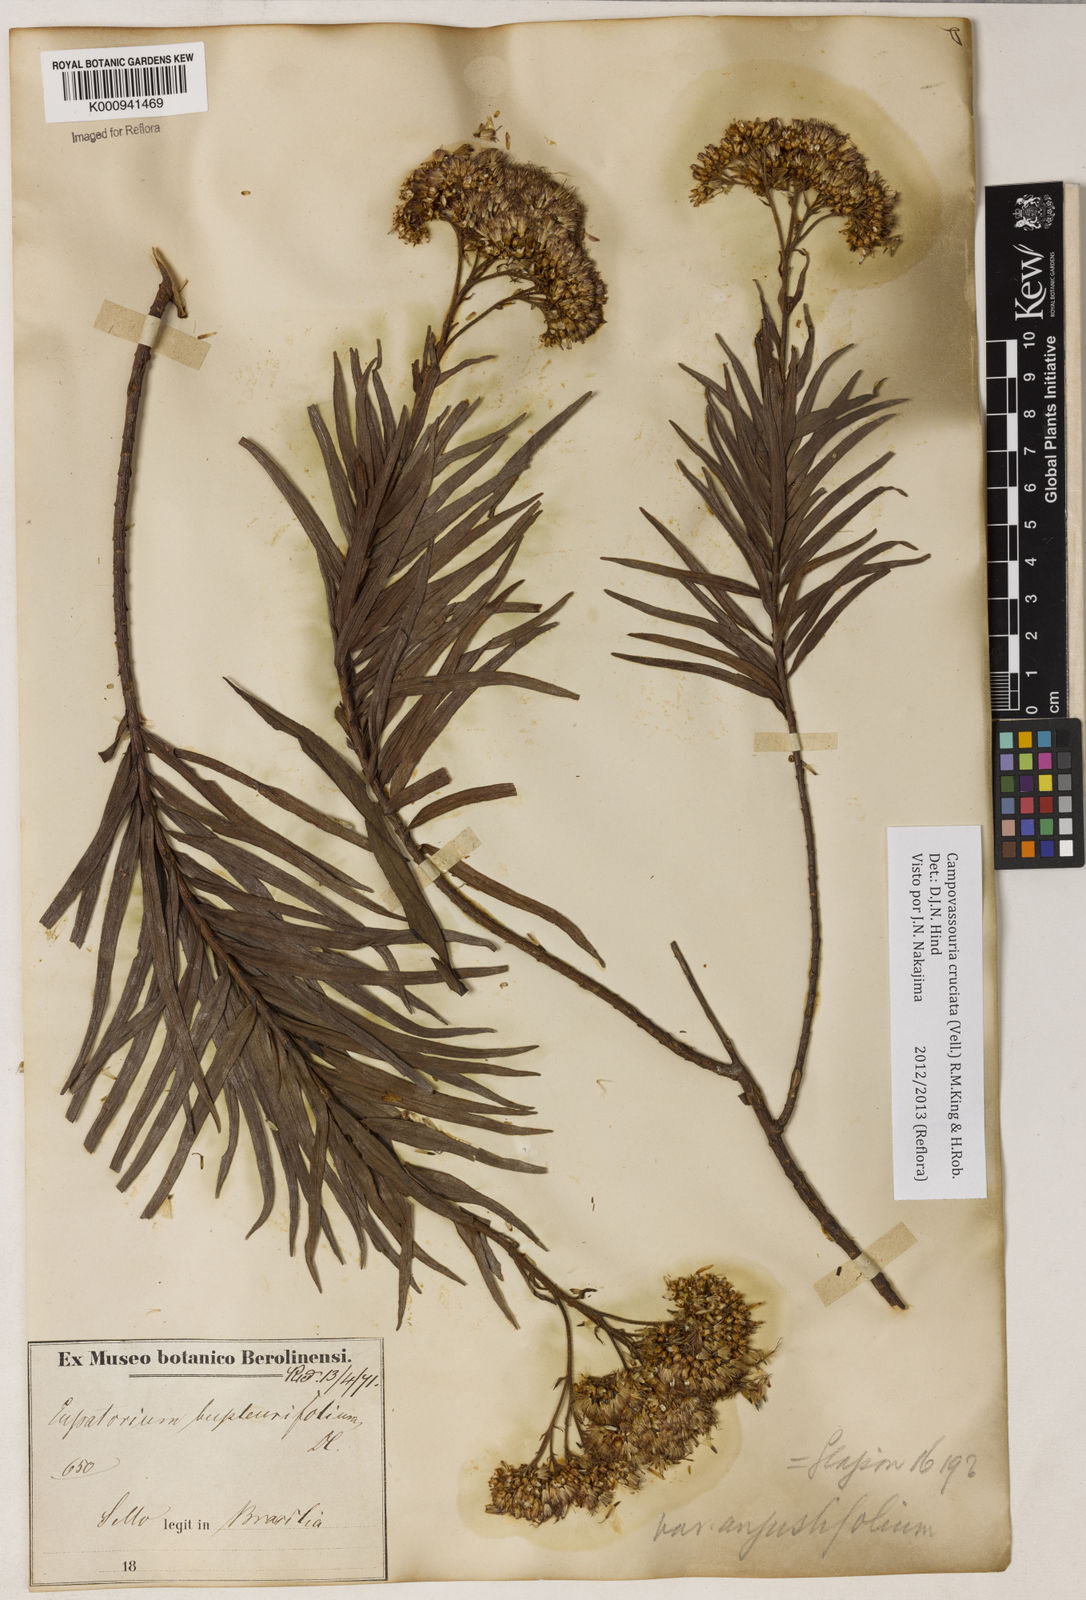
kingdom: Plantae
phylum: Tracheophyta
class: Magnoliopsida
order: Asterales
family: Asteraceae
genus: Campovassouria
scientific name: Campovassouria cruciata
